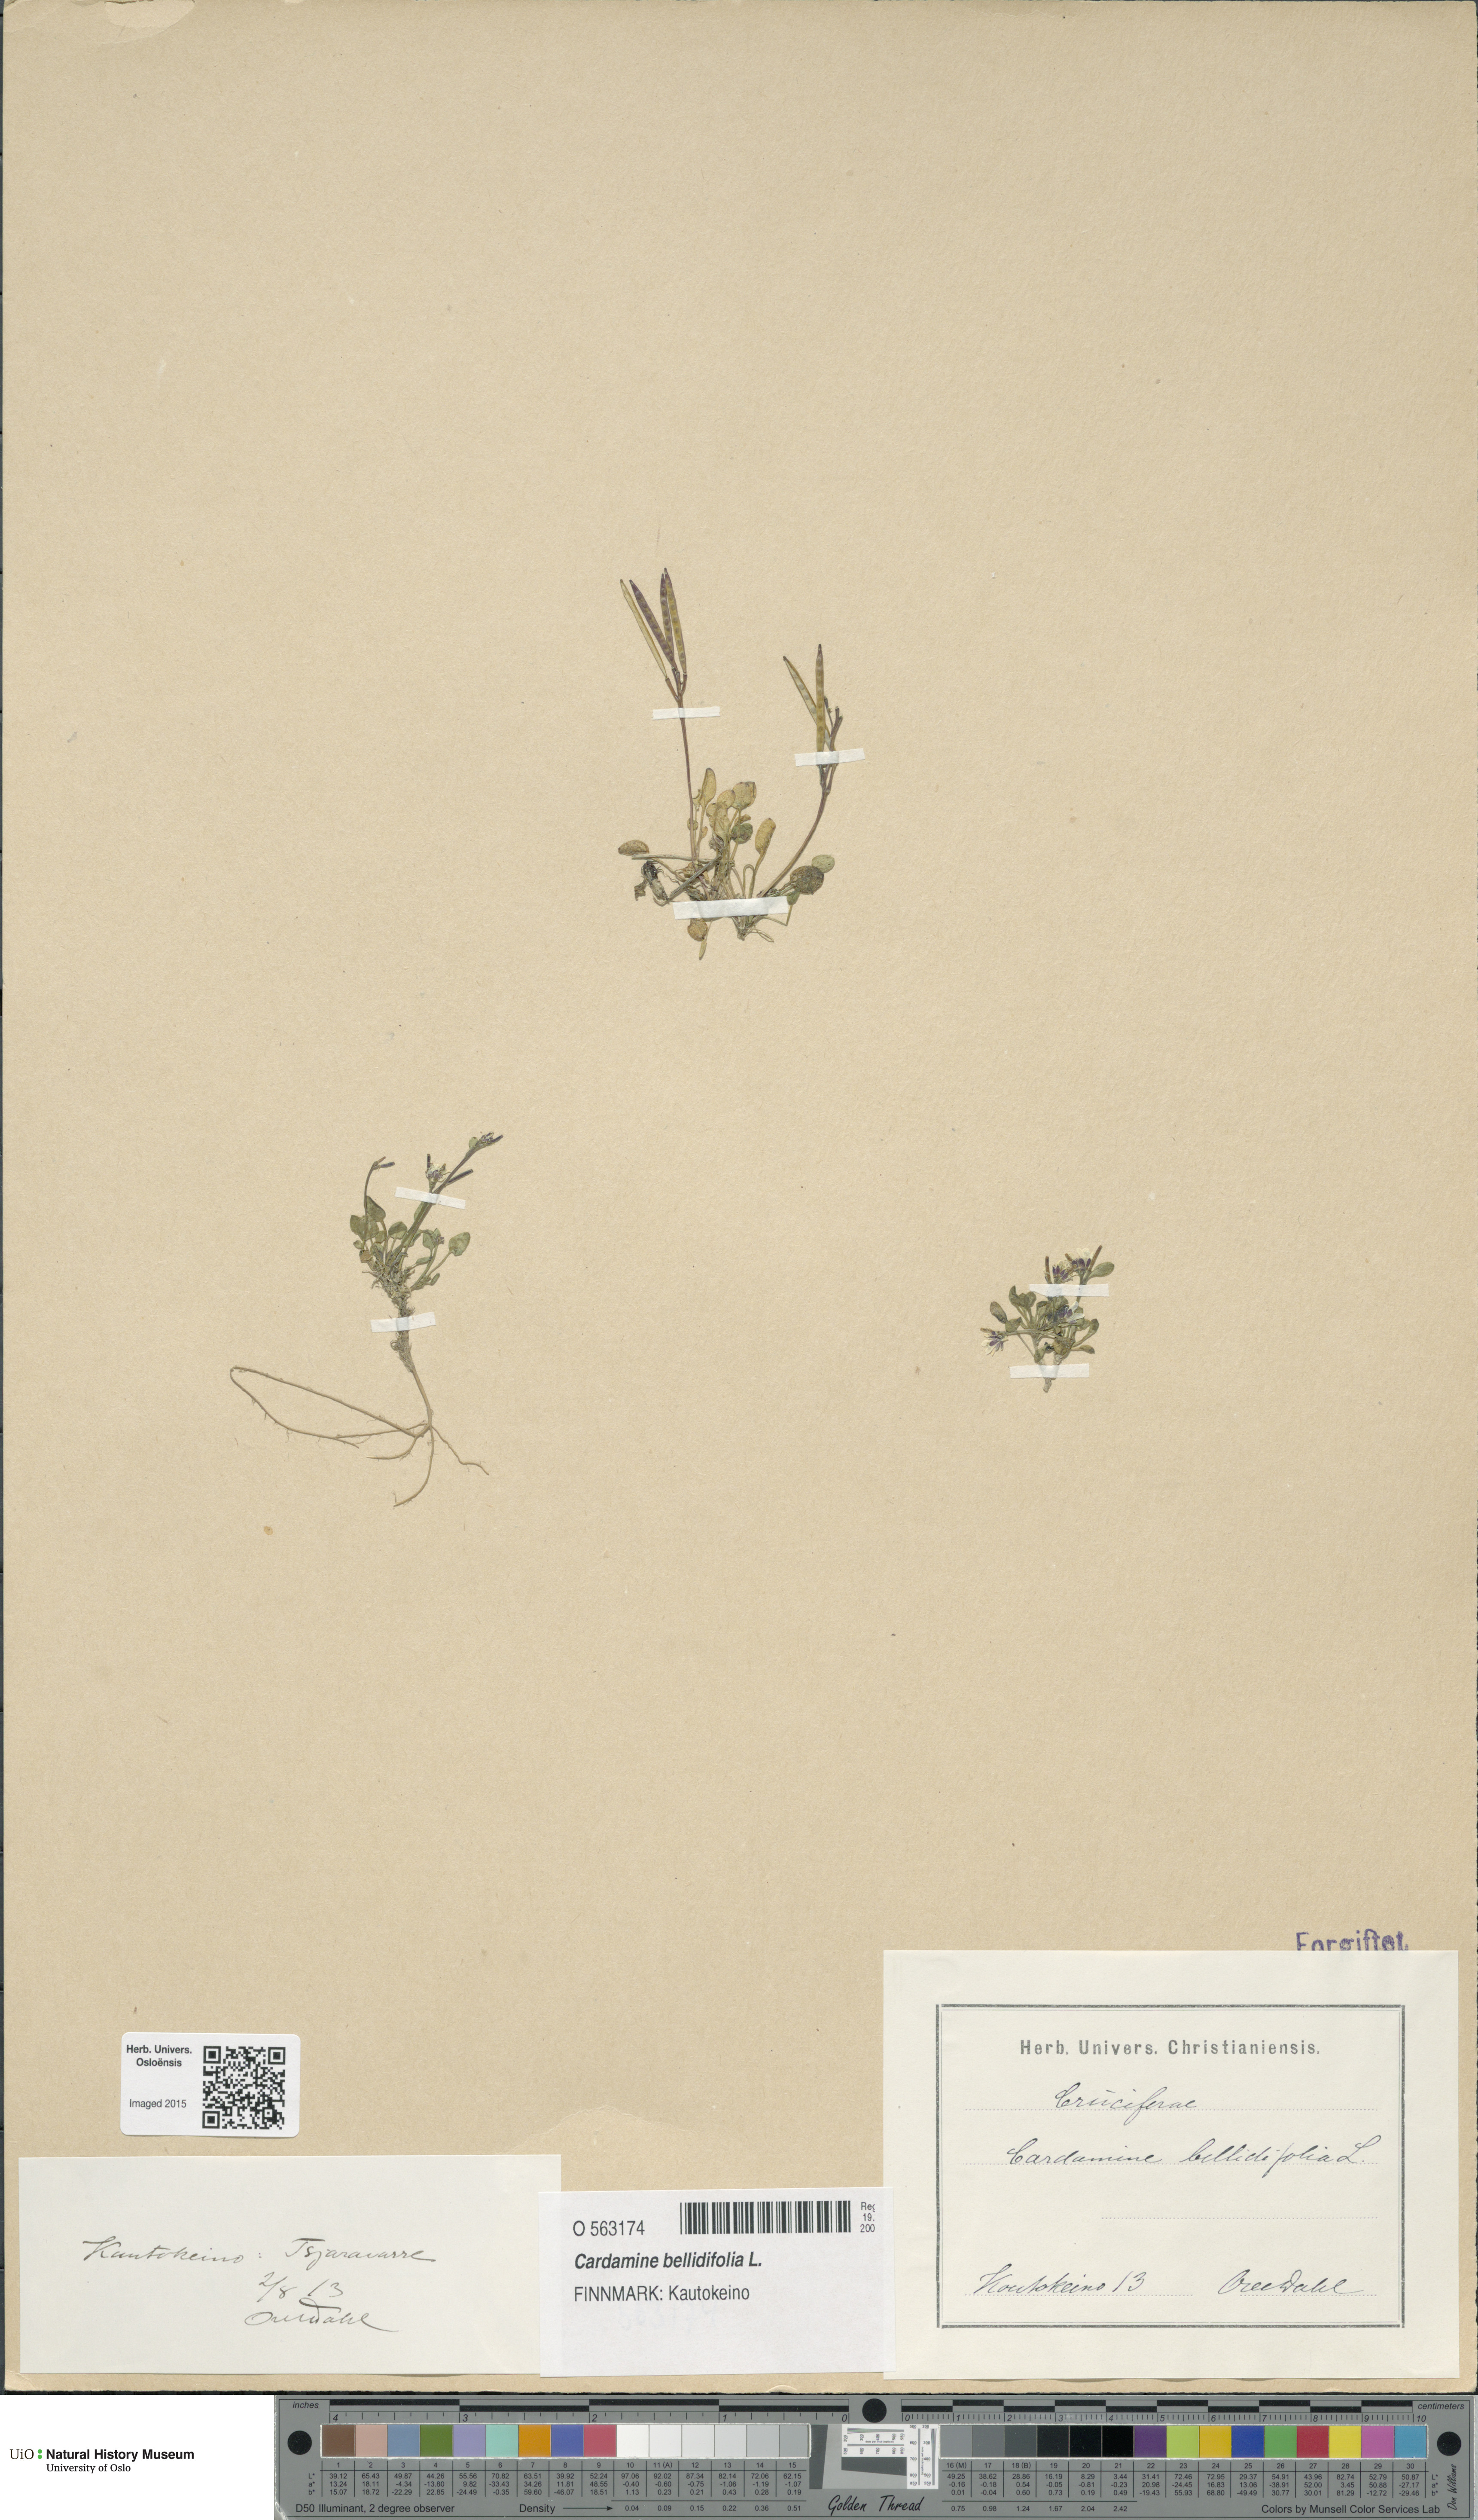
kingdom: Plantae
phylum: Tracheophyta
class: Magnoliopsida
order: Brassicales
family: Brassicaceae
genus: Cardamine
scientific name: Cardamine bellidifolia
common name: Alpine bittercress
